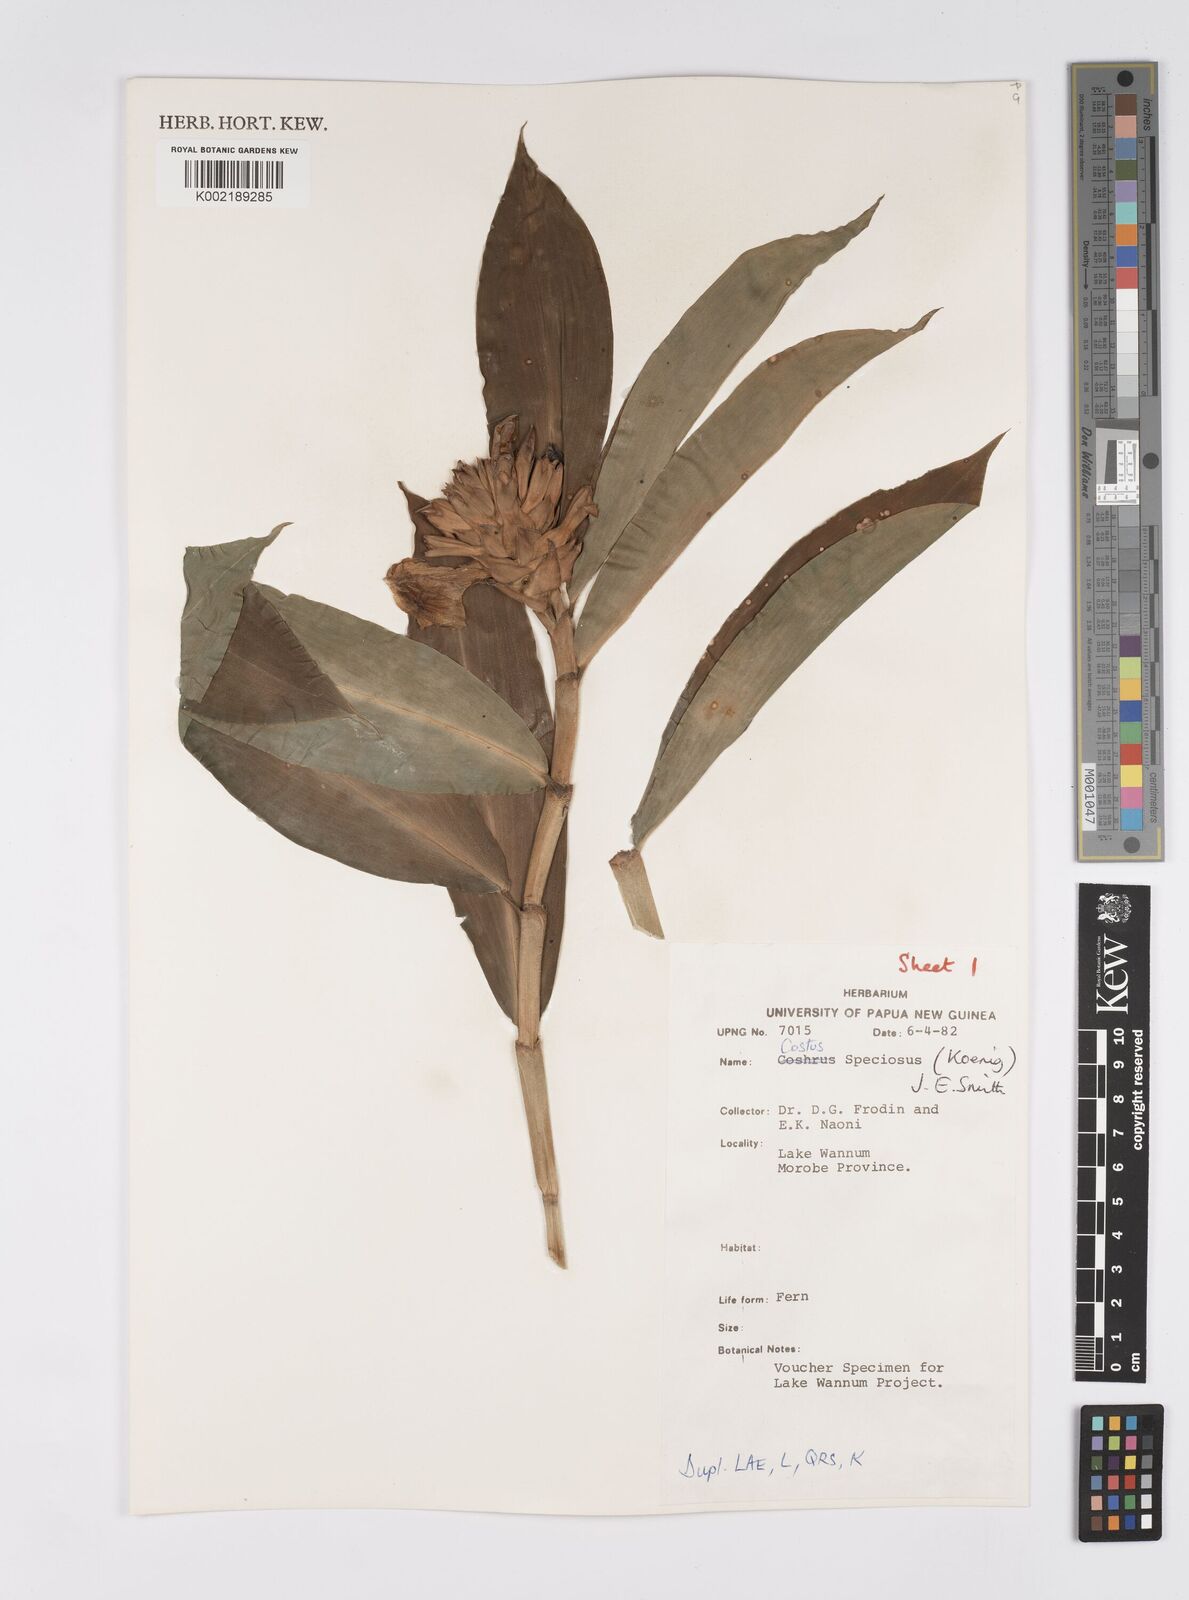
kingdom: Plantae
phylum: Tracheophyta
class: Liliopsida
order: Zingiberales
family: Costaceae
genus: Hellenia
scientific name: Hellenia speciosa
